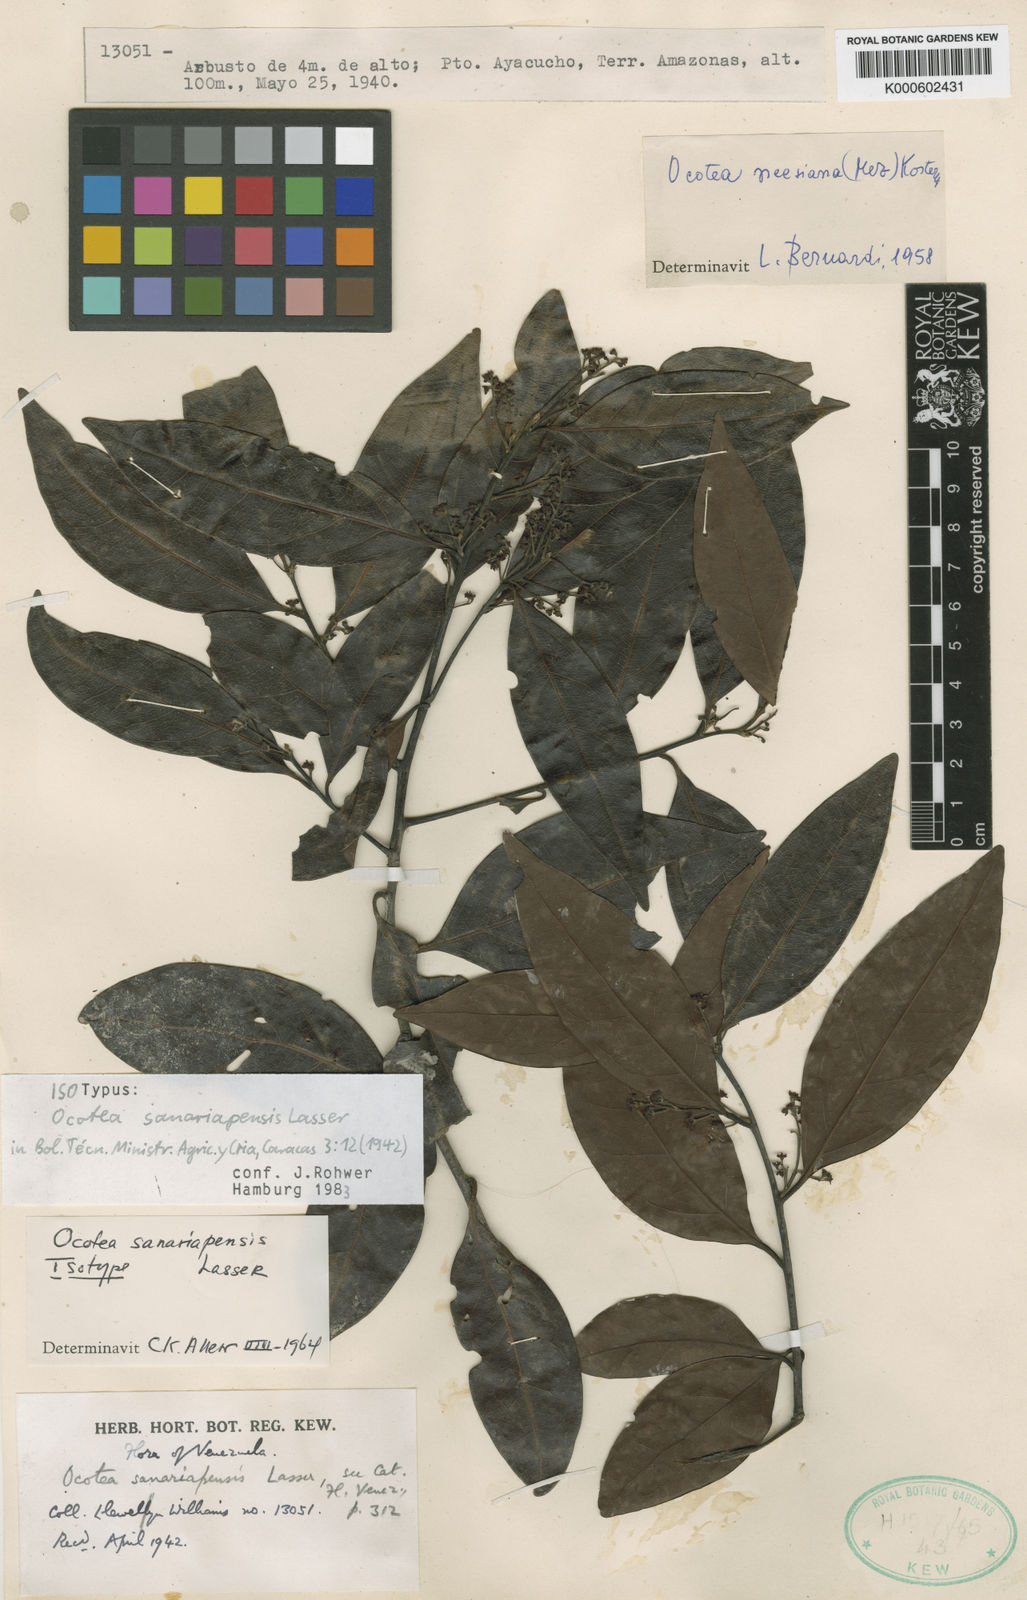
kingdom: Plantae
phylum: Tracheophyta
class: Magnoliopsida
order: Laurales
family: Lauraceae
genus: Ocotea
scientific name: Ocotea sanariapensis
